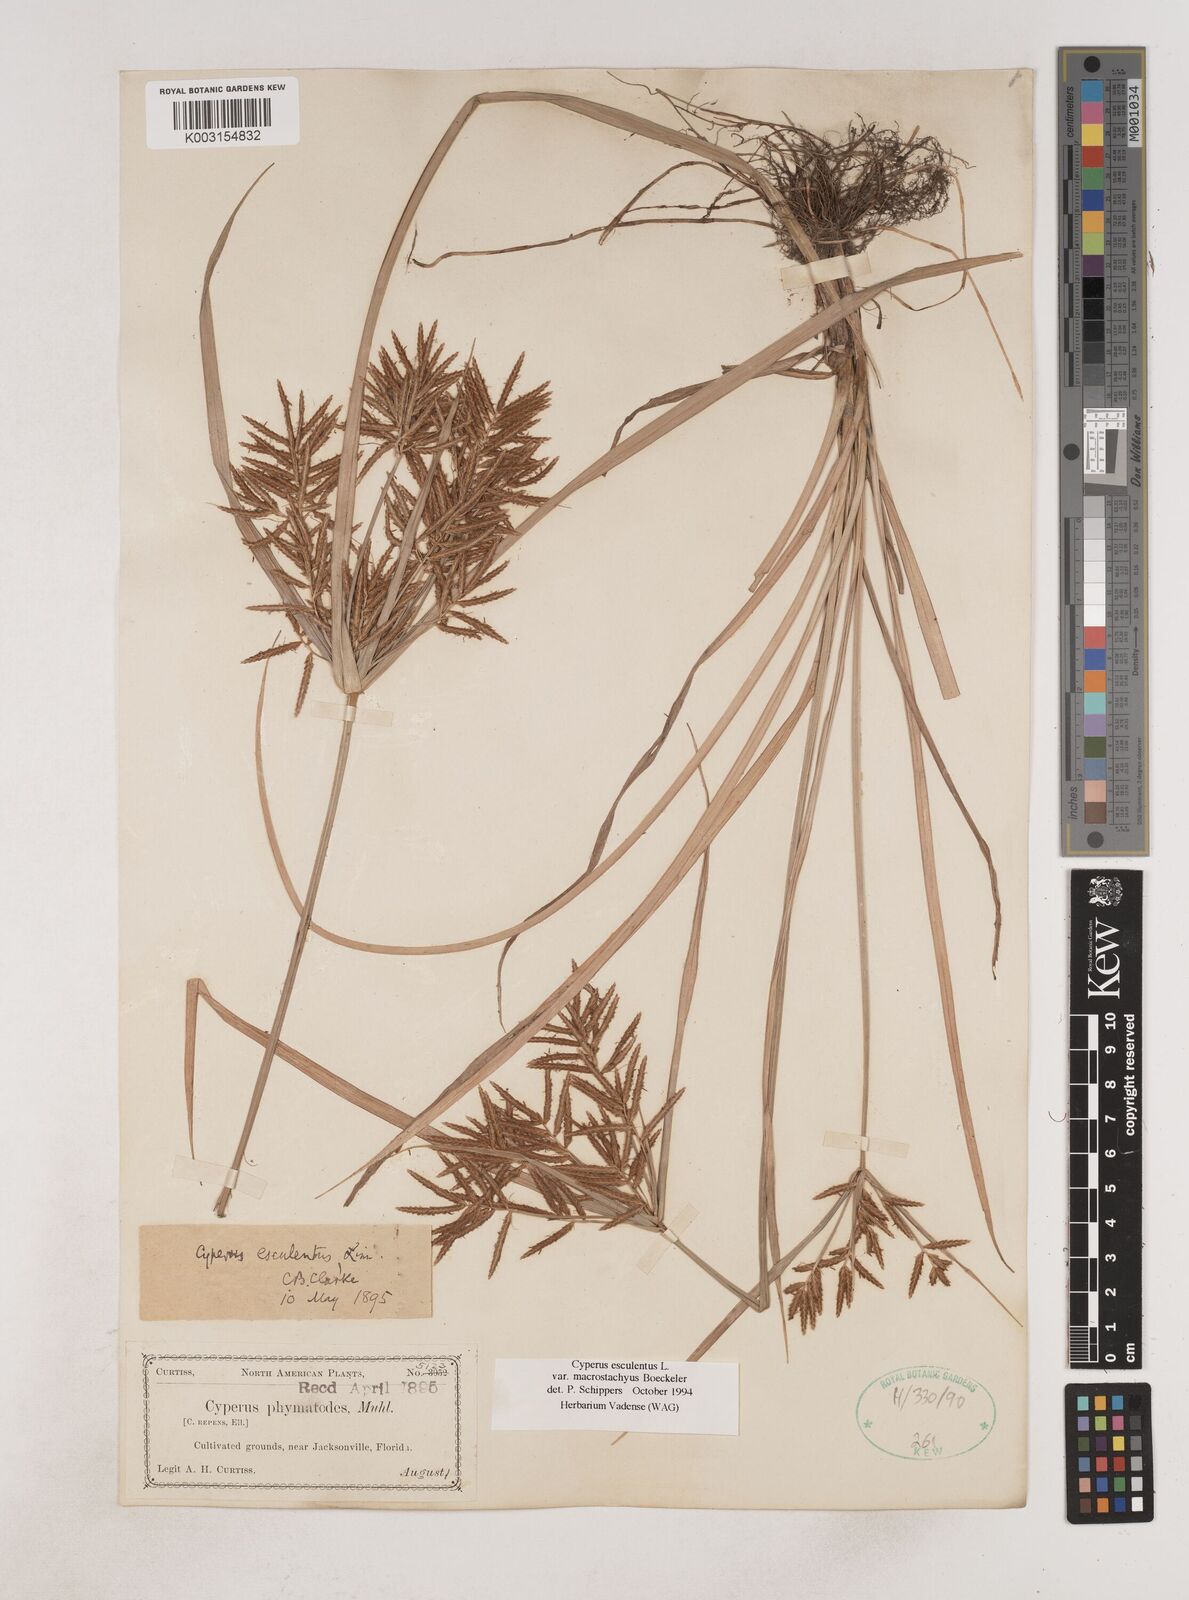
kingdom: Plantae
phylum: Tracheophyta
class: Liliopsida
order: Poales
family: Cyperaceae
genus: Cyperus
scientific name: Cyperus esculentus
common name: Yellow nutsedge
